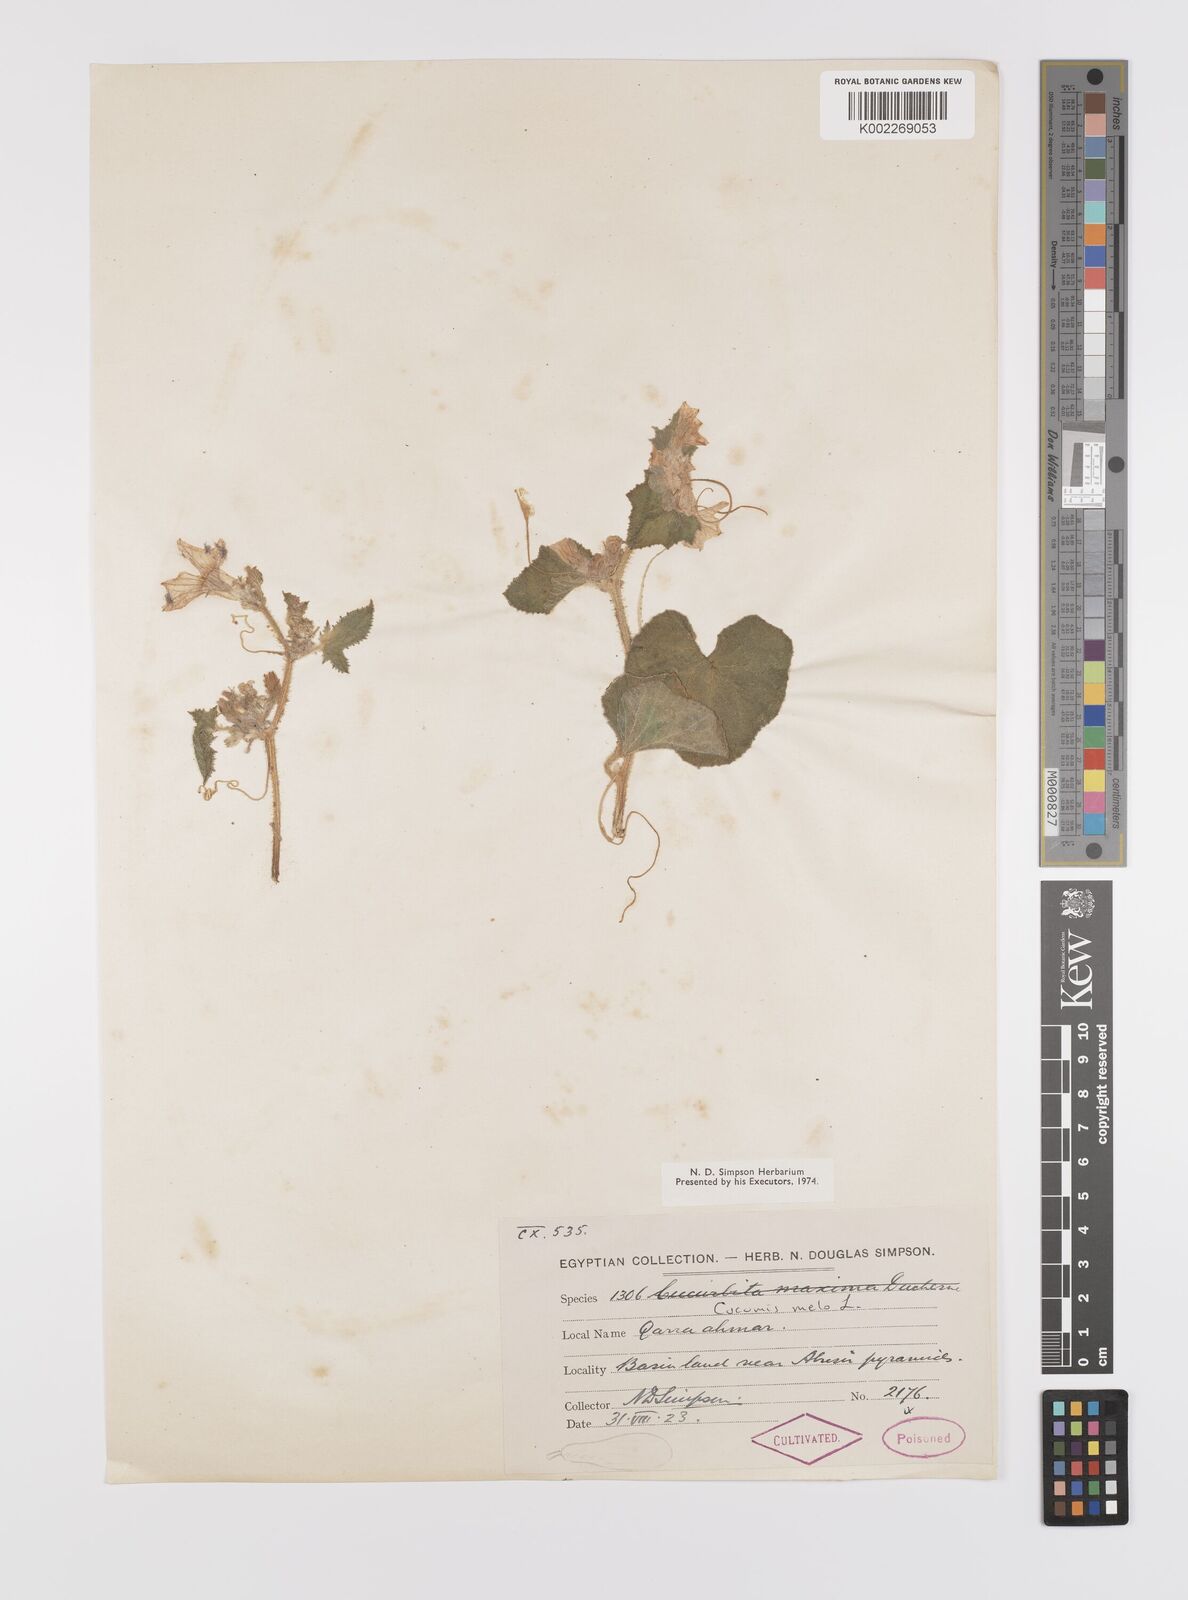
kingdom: Plantae
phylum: Tracheophyta
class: Magnoliopsida
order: Cucurbitales
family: Cucurbitaceae
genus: Cucumis
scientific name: Cucumis melo
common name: Melon
